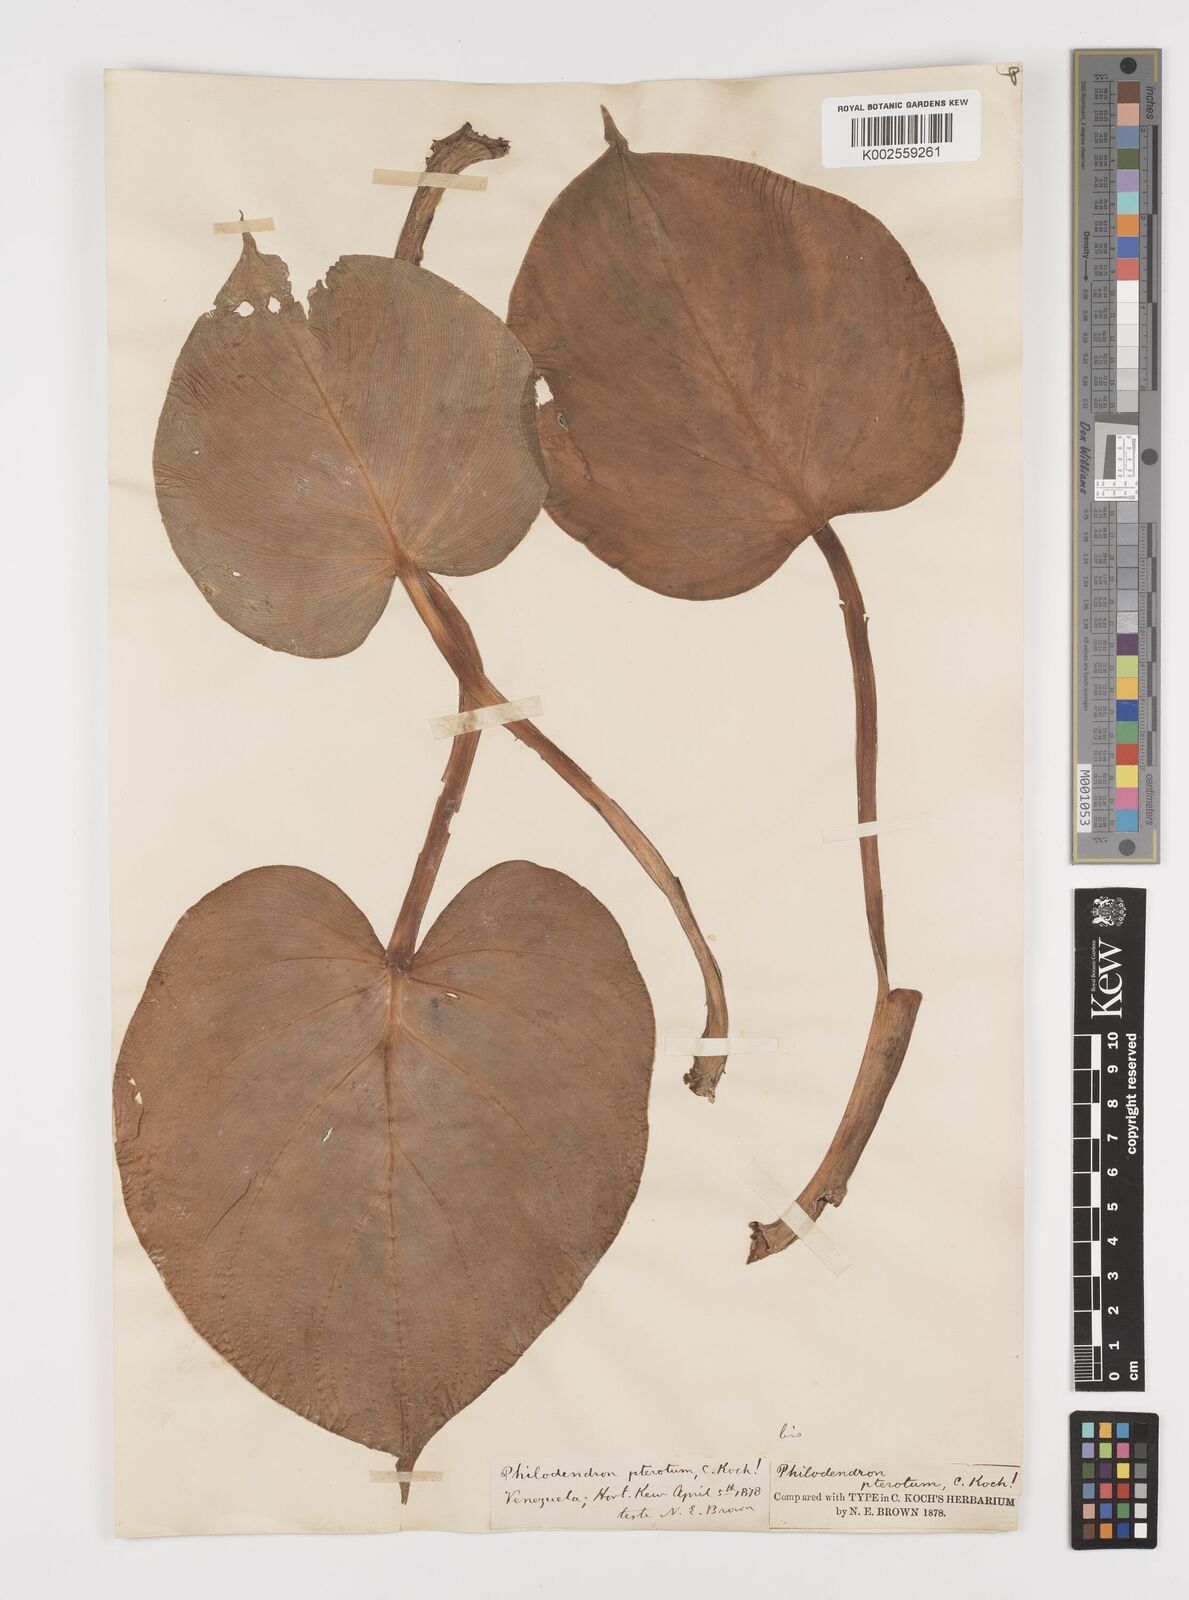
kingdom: Plantae
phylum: Tracheophyta
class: Liliopsida
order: Alismatales
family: Araceae
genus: Philodendron
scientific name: Philodendron pterotum
